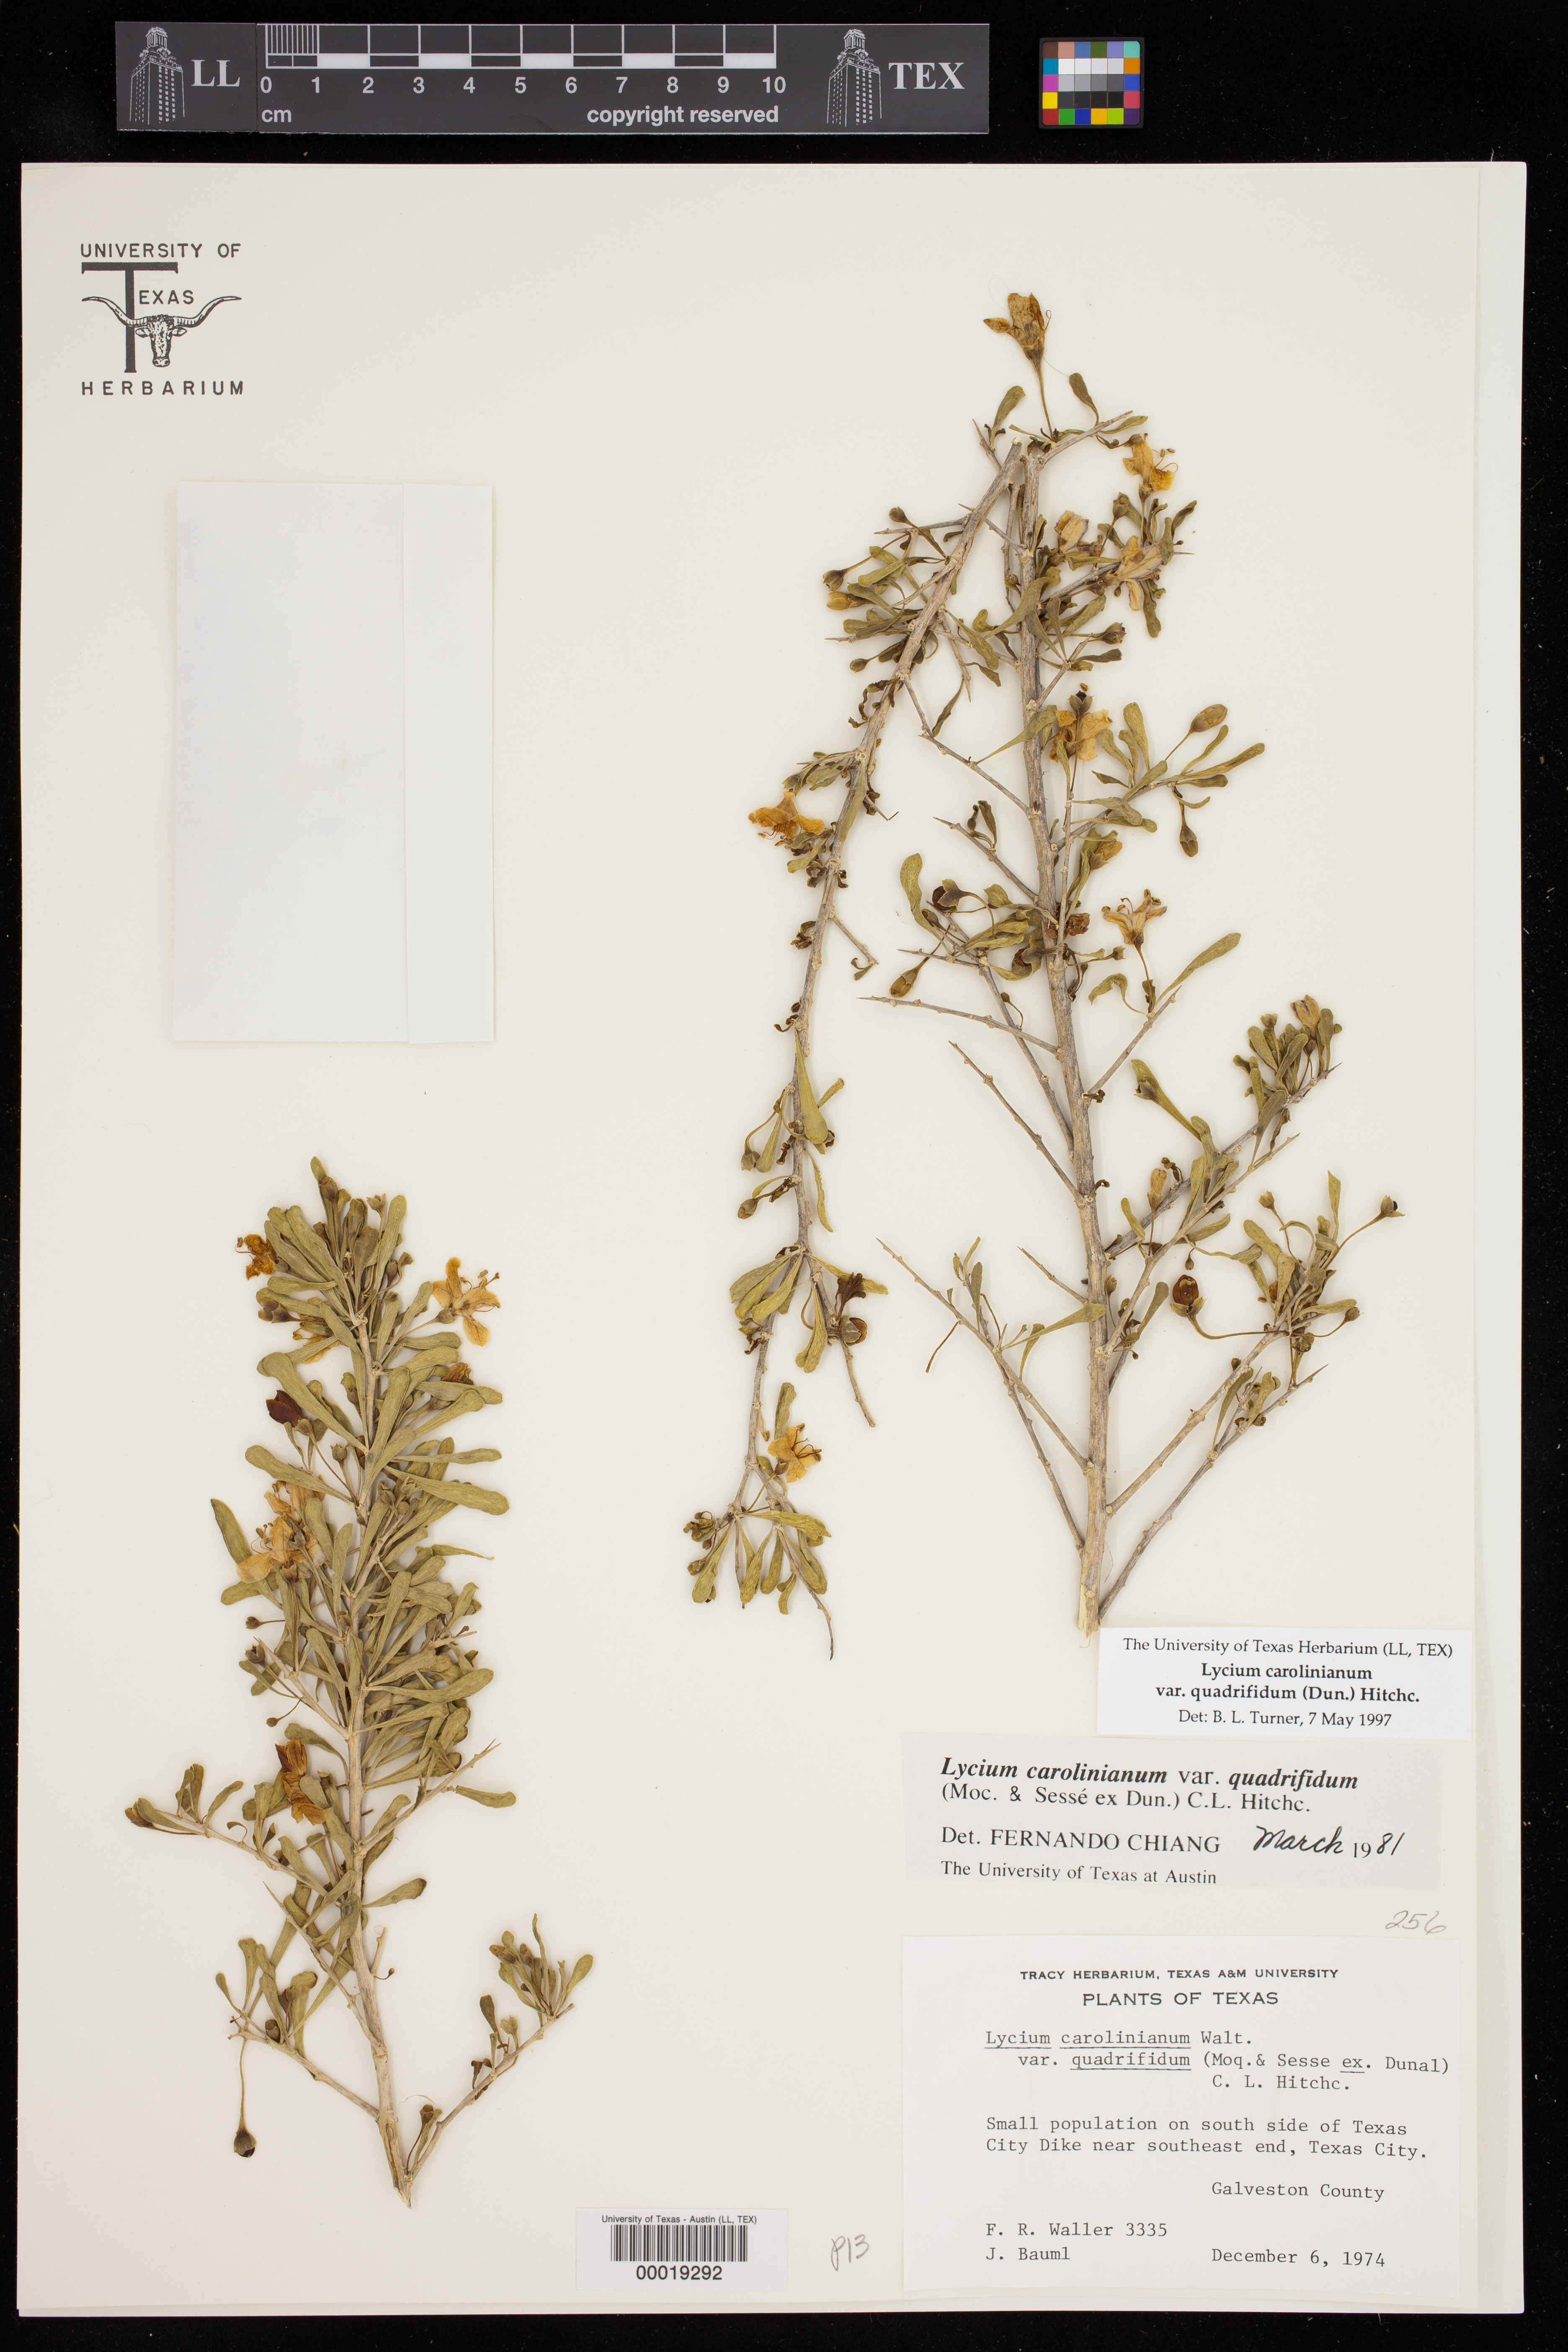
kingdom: Plantae
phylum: Tracheophyta
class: Magnoliopsida
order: Solanales
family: Solanaceae
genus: Lycium
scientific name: Lycium carolinianum
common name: Christmasberry
